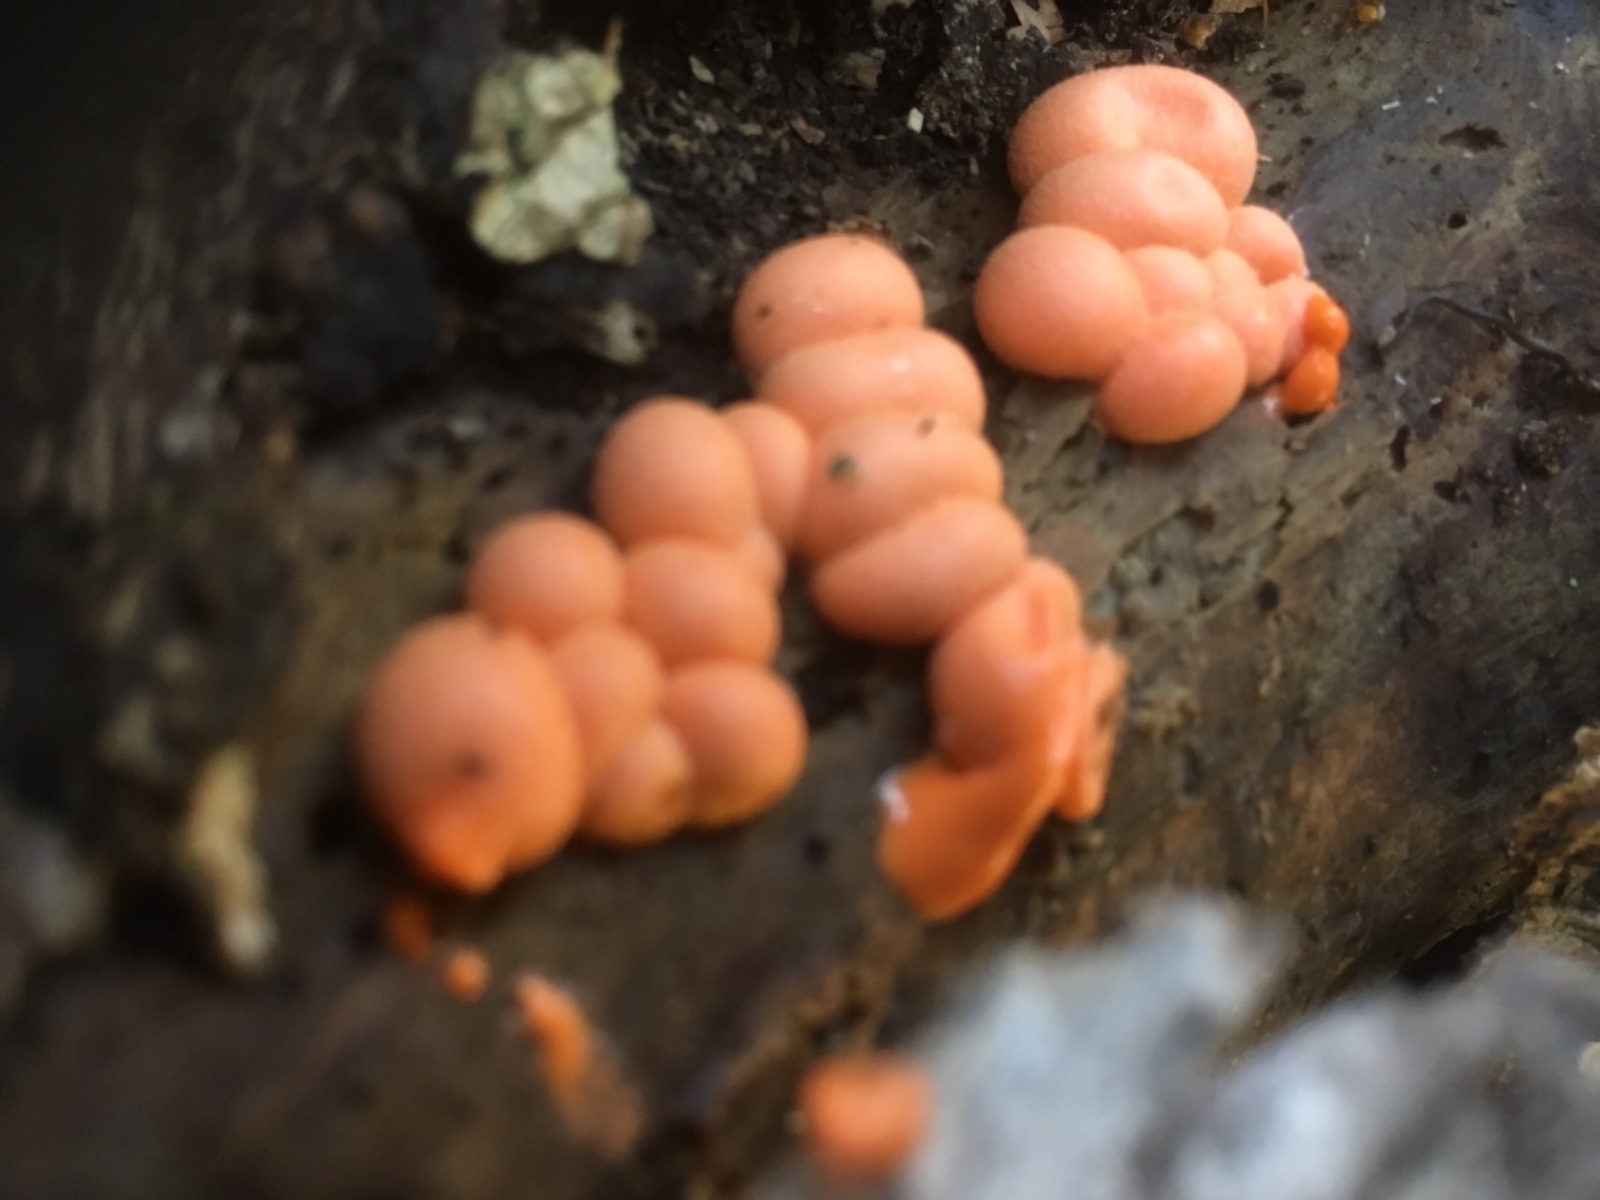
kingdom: Protozoa
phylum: Mycetozoa
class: Myxomycetes
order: Cribrariales
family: Tubiferaceae
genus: Lycogala
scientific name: Lycogala epidendrum
